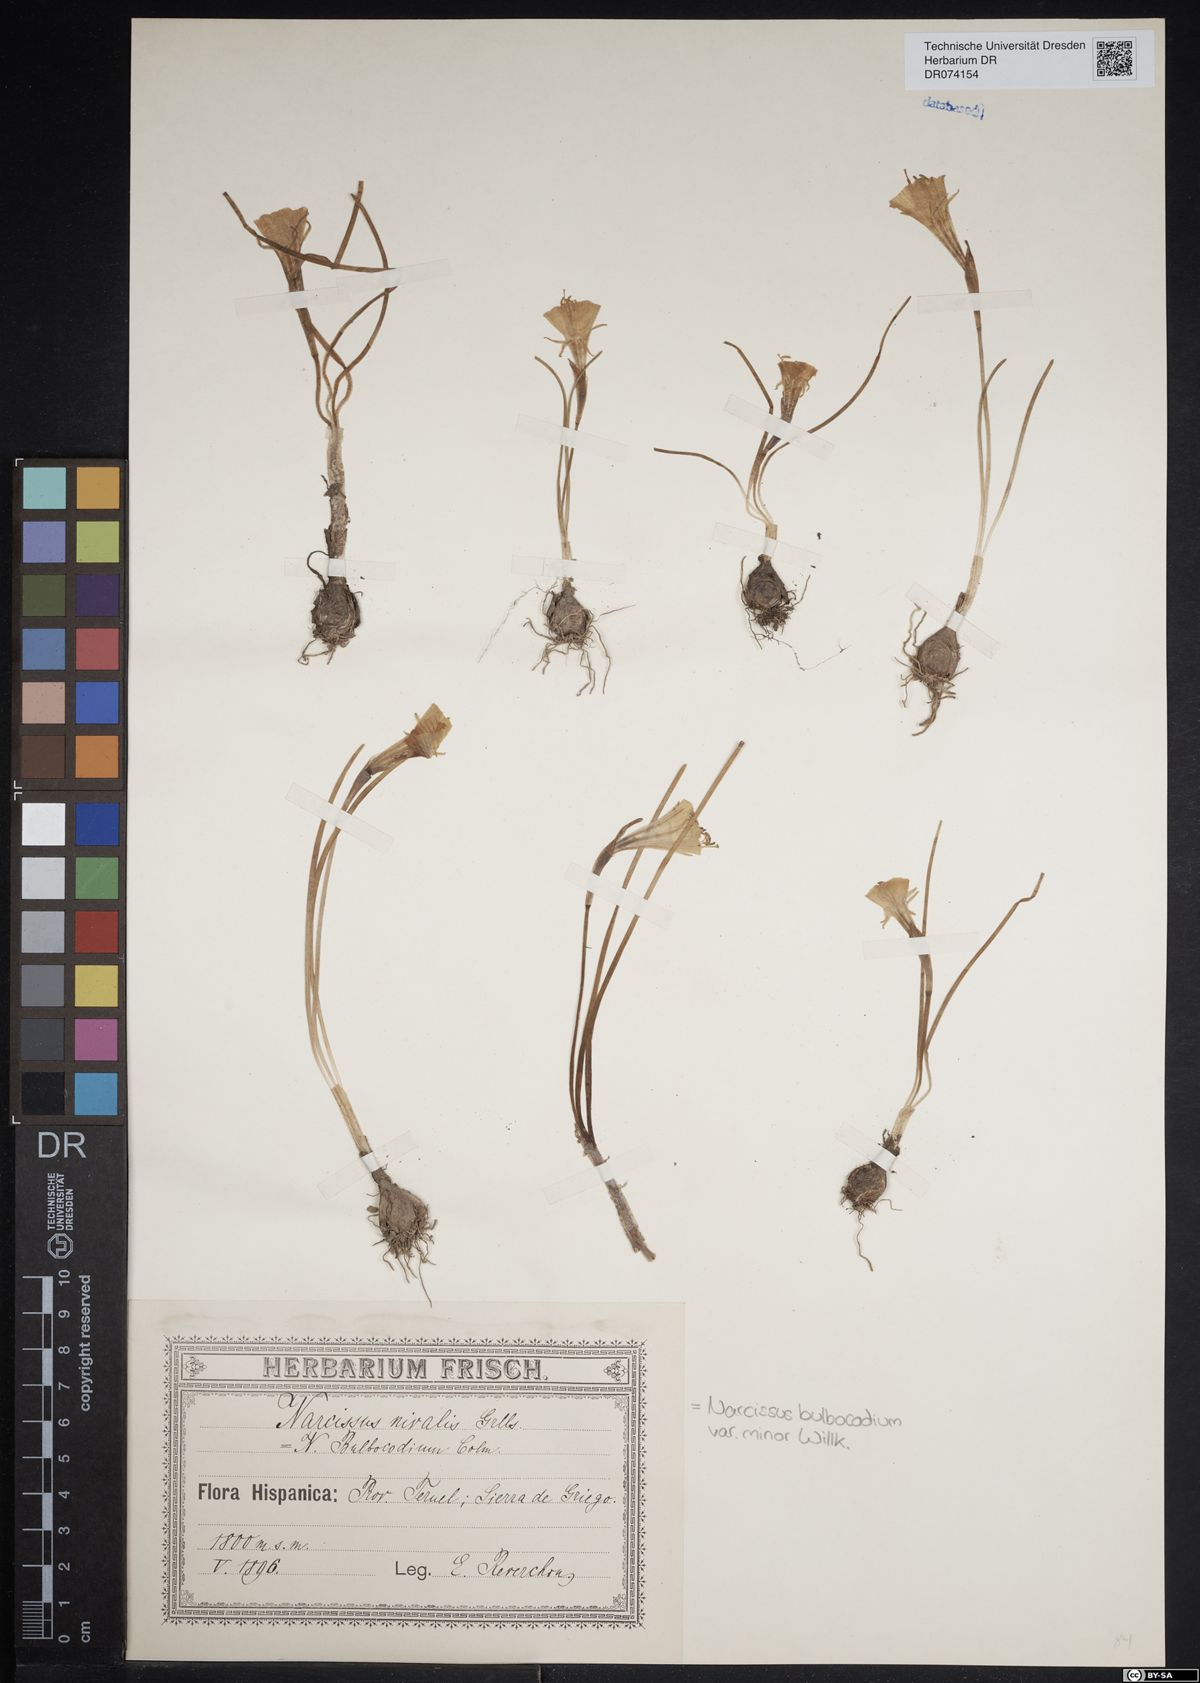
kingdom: Plantae
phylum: Tracheophyta
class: Liliopsida
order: Asparagales
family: Amaryllidaceae
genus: Narcissus
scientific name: Narcissus bulbocodium
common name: Hoop-petticoat daffodil
